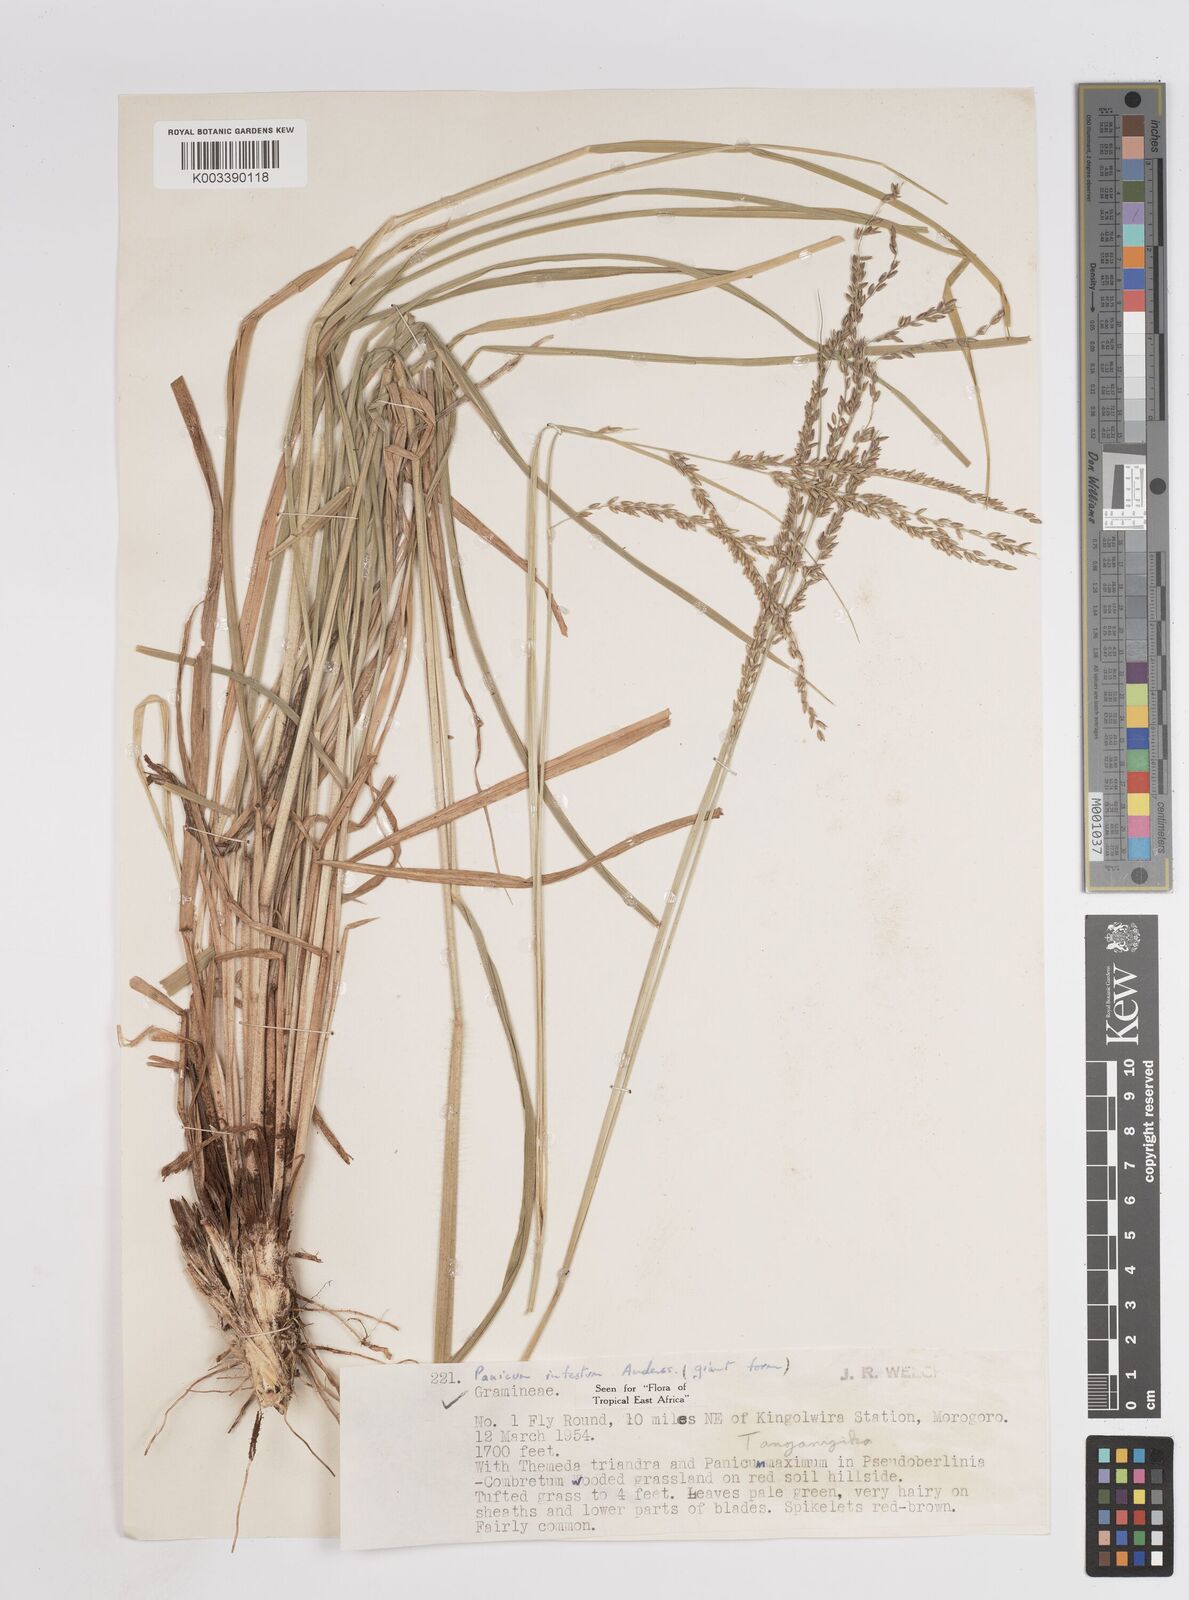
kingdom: Plantae
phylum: Tracheophyta
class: Liliopsida
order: Poales
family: Poaceae
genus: Megathyrsus
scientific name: Megathyrsus infestus
